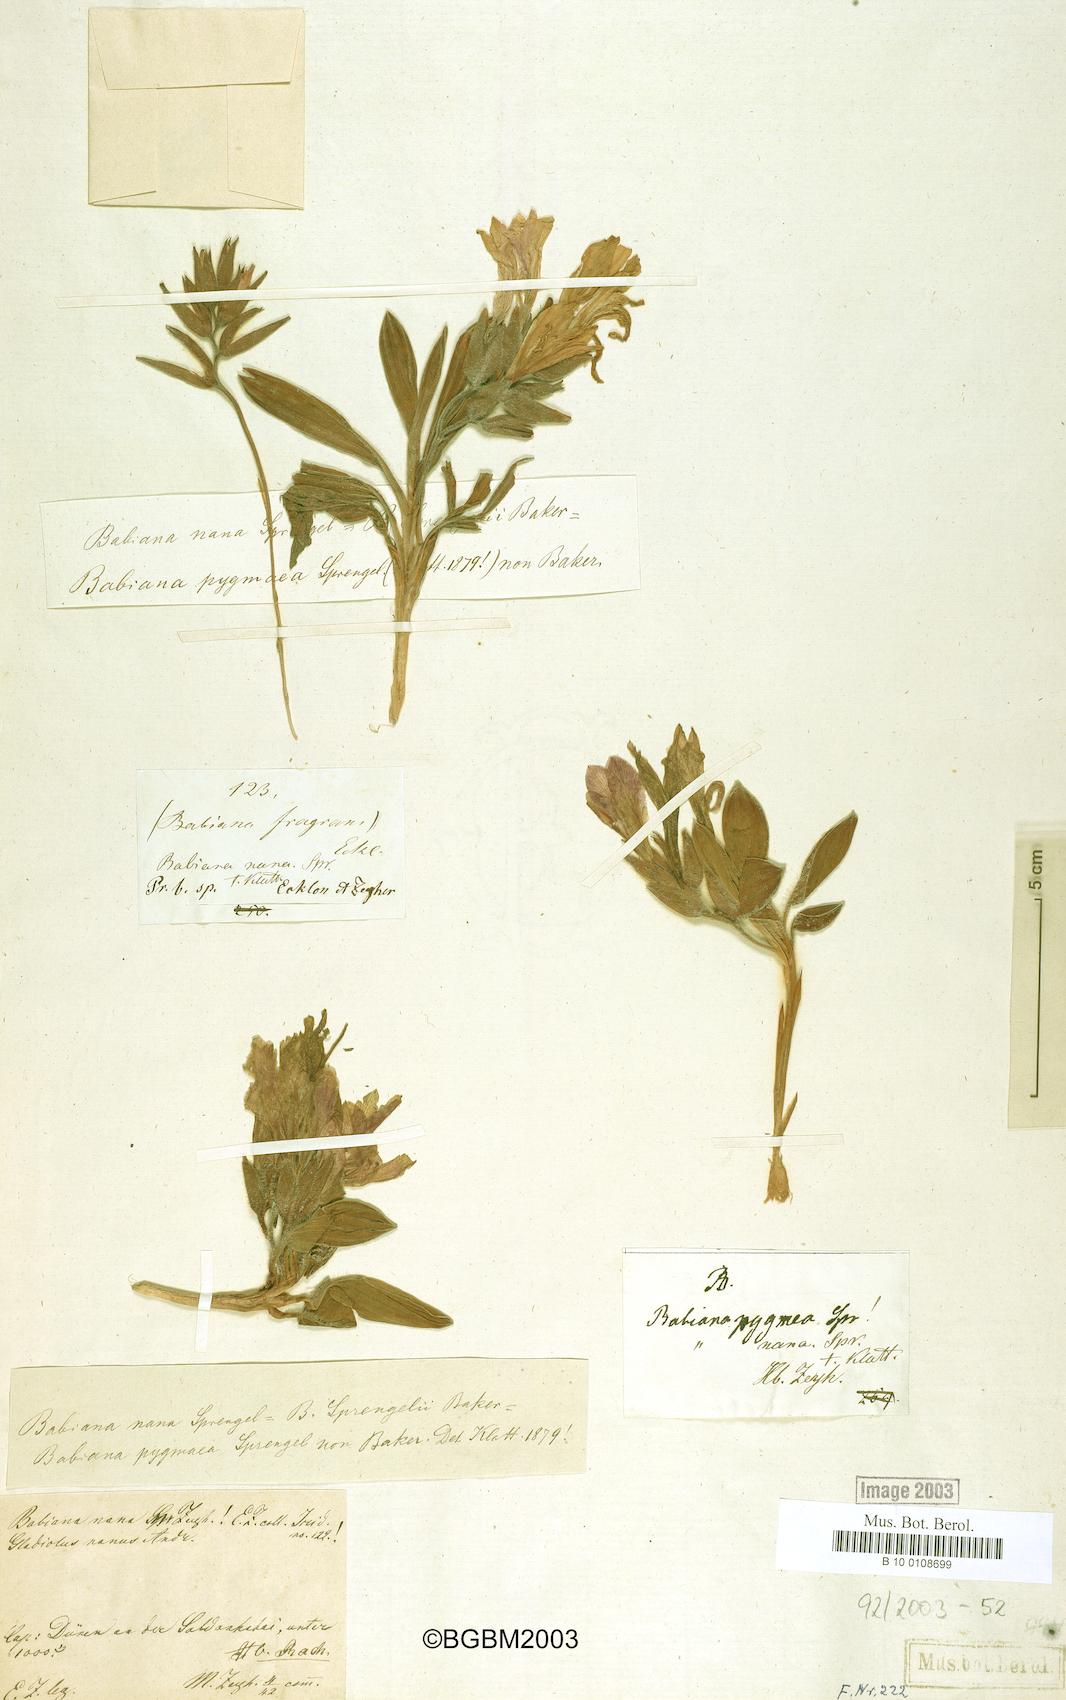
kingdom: Plantae
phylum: Tracheophyta
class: Liliopsida
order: Asparagales
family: Iridaceae
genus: Babiana
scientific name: Babiana nana
